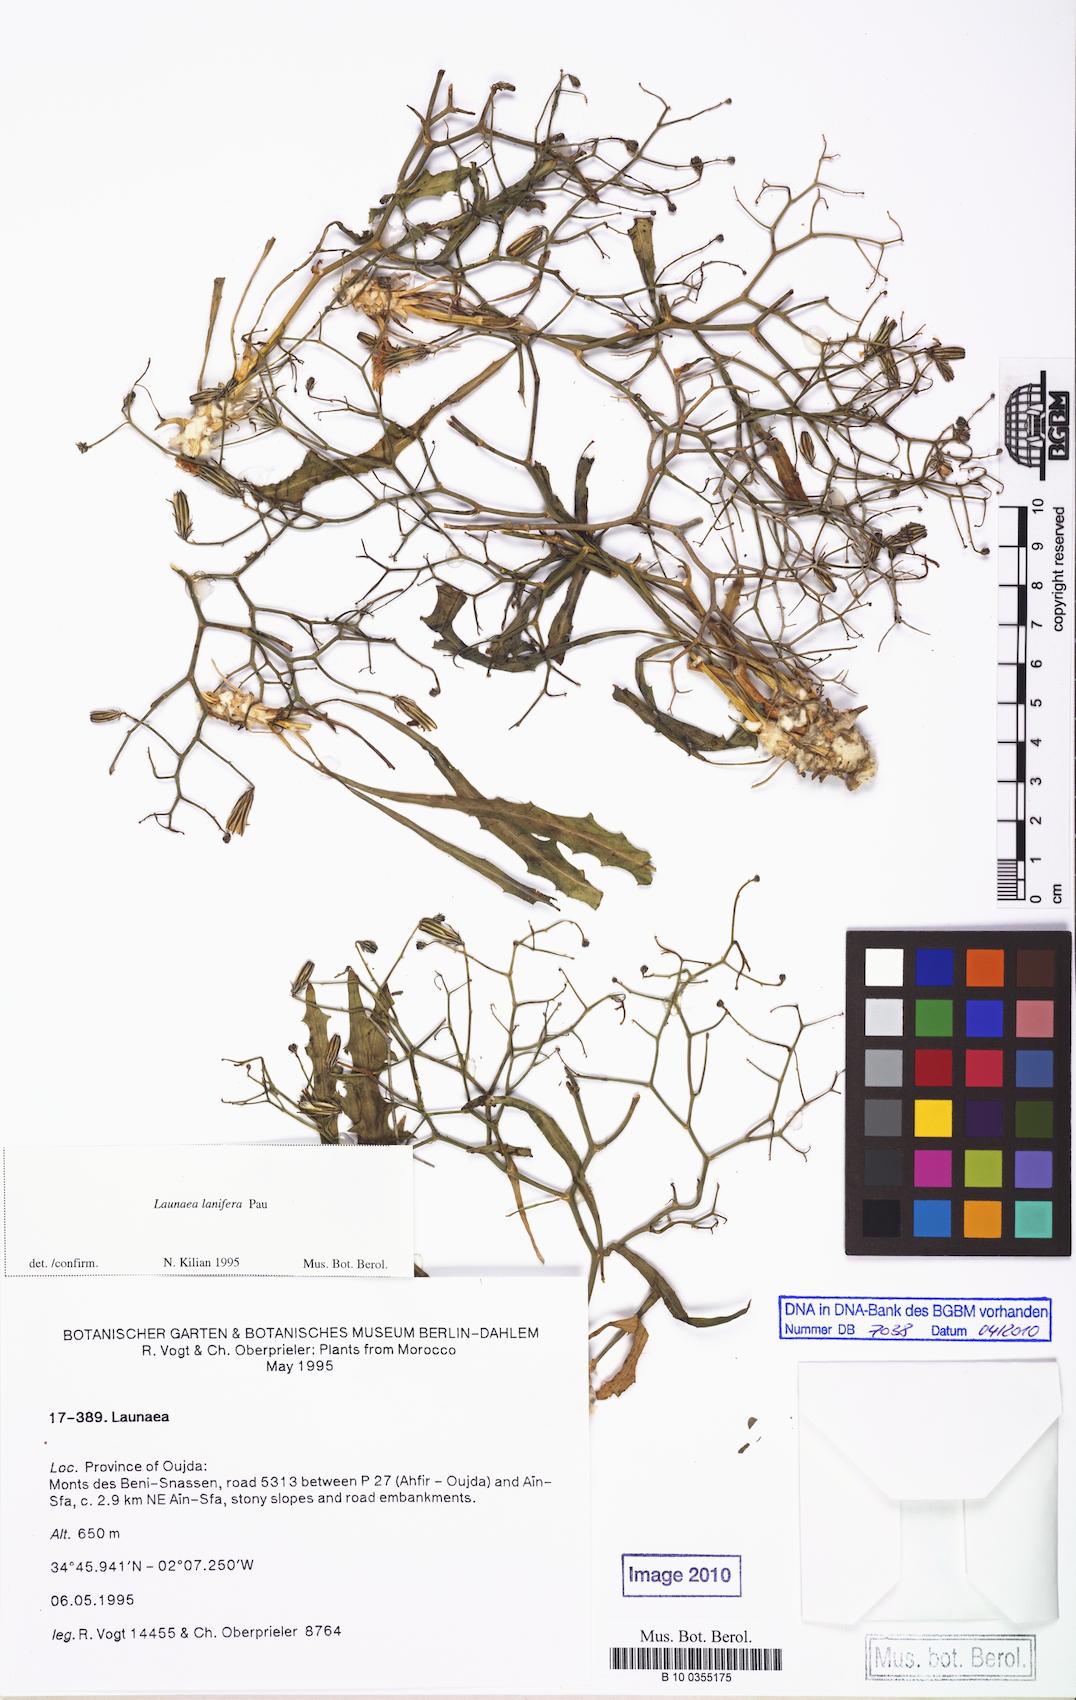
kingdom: Plantae
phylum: Tracheophyta
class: Magnoliopsida
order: Asterales
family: Asteraceae
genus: Launaea
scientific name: Launaea lanifera
